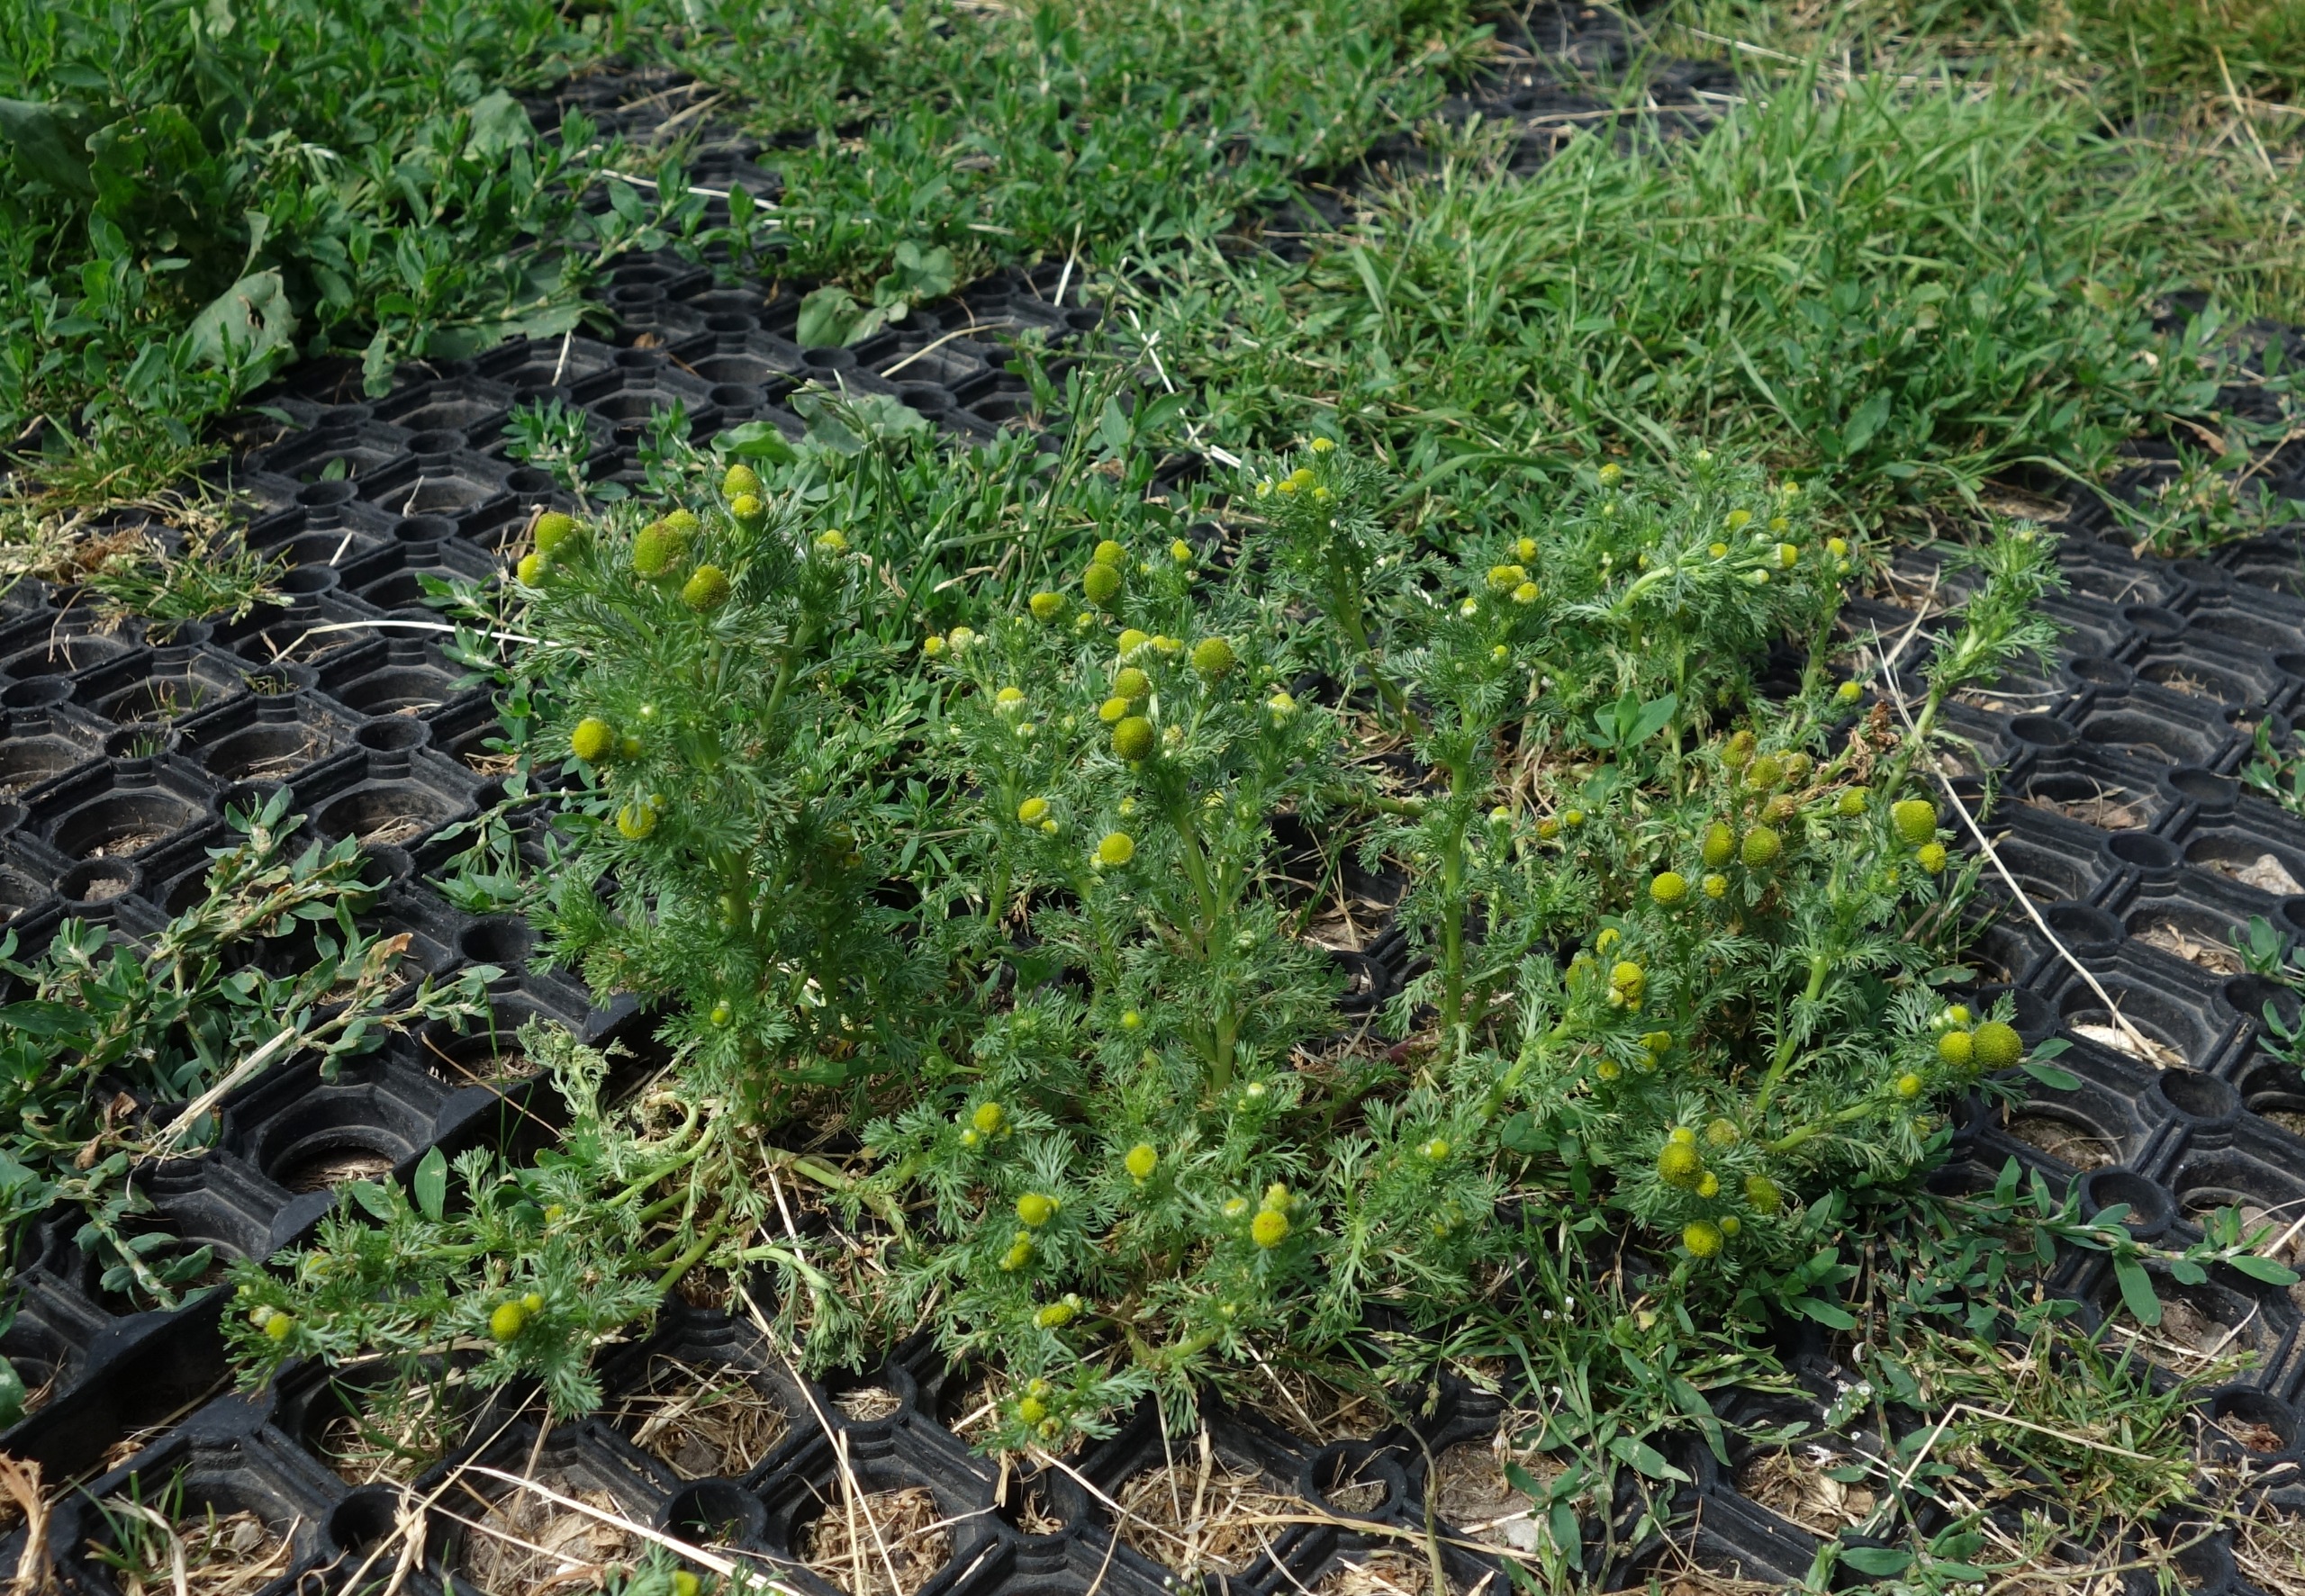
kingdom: Plantae
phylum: Tracheophyta
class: Magnoliopsida
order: Asterales
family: Asteraceae
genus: Matricaria
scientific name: Matricaria discoidea
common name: Skive-kamille
